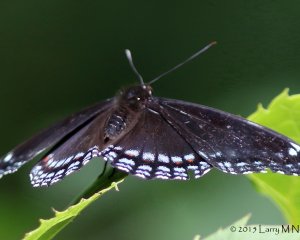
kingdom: Animalia
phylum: Arthropoda
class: Insecta
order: Lepidoptera
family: Nymphalidae
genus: Limenitis
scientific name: Limenitis astyanax
